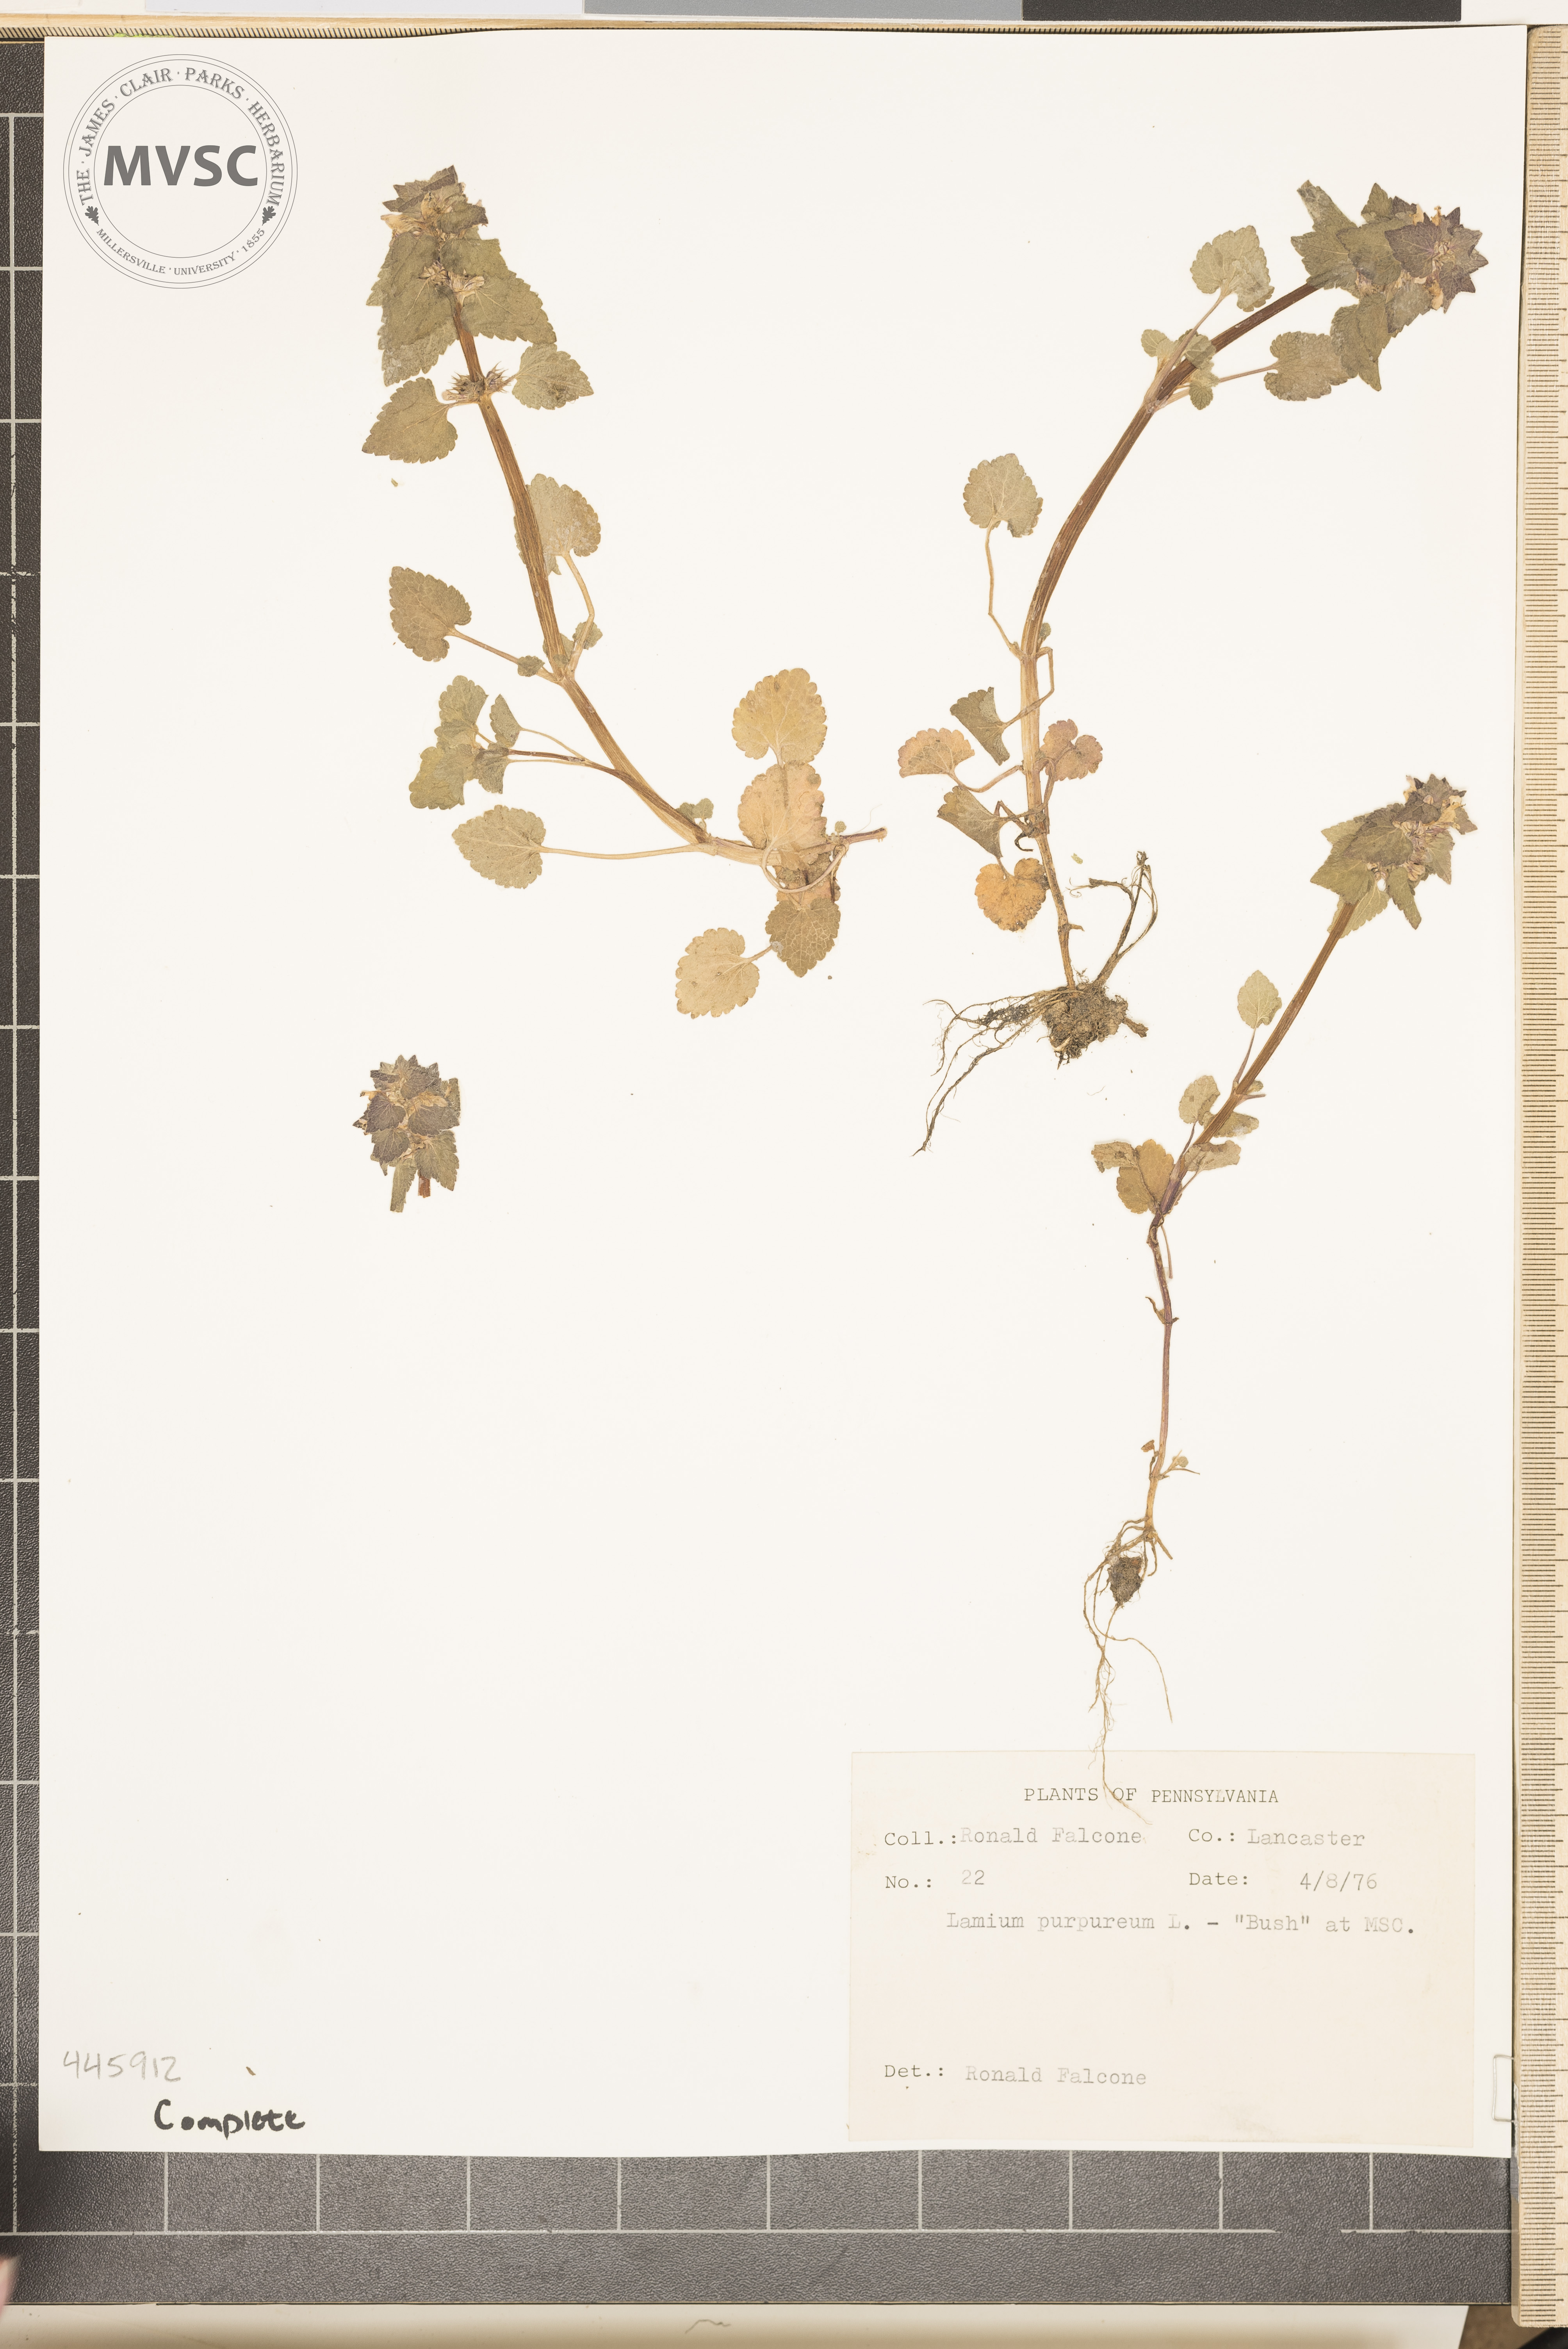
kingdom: Plantae
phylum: Tracheophyta
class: Magnoliopsida
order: Lamiales
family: Lamiaceae
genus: Lamium
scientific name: Lamium purpureum
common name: Red dead-nettle
